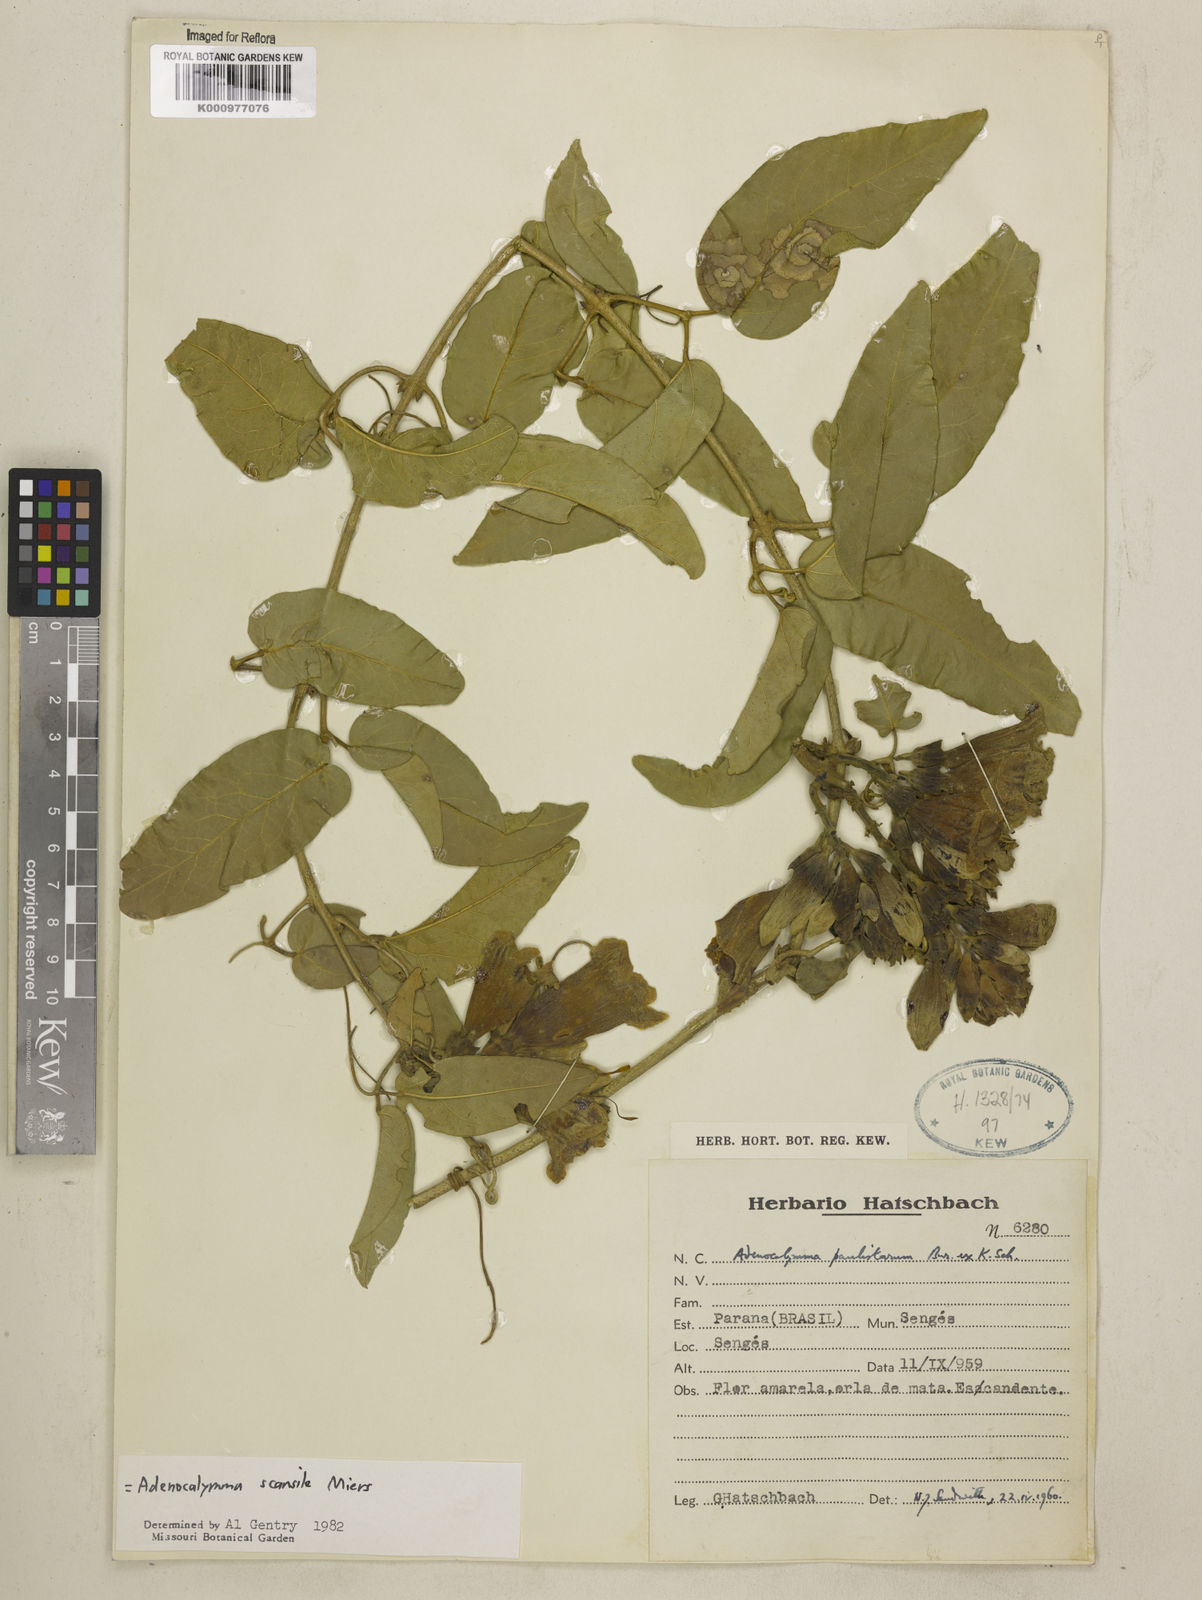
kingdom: Plantae
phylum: Tracheophyta
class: Magnoliopsida
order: Lamiales
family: Bignoniaceae
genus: Adenocalymma
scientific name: Adenocalymma scansile
